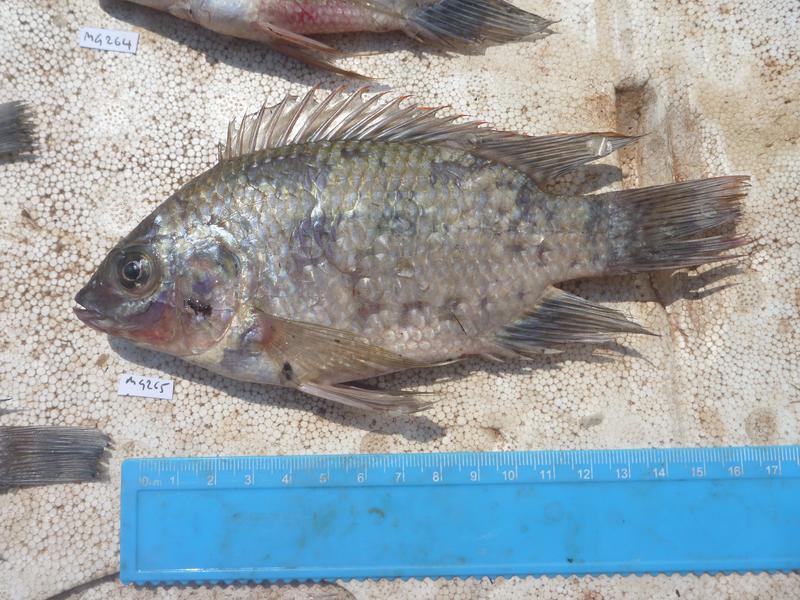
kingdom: Animalia
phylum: Chordata
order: Perciformes
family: Cichlidae
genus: Oreochromis
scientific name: Oreochromis upembae
